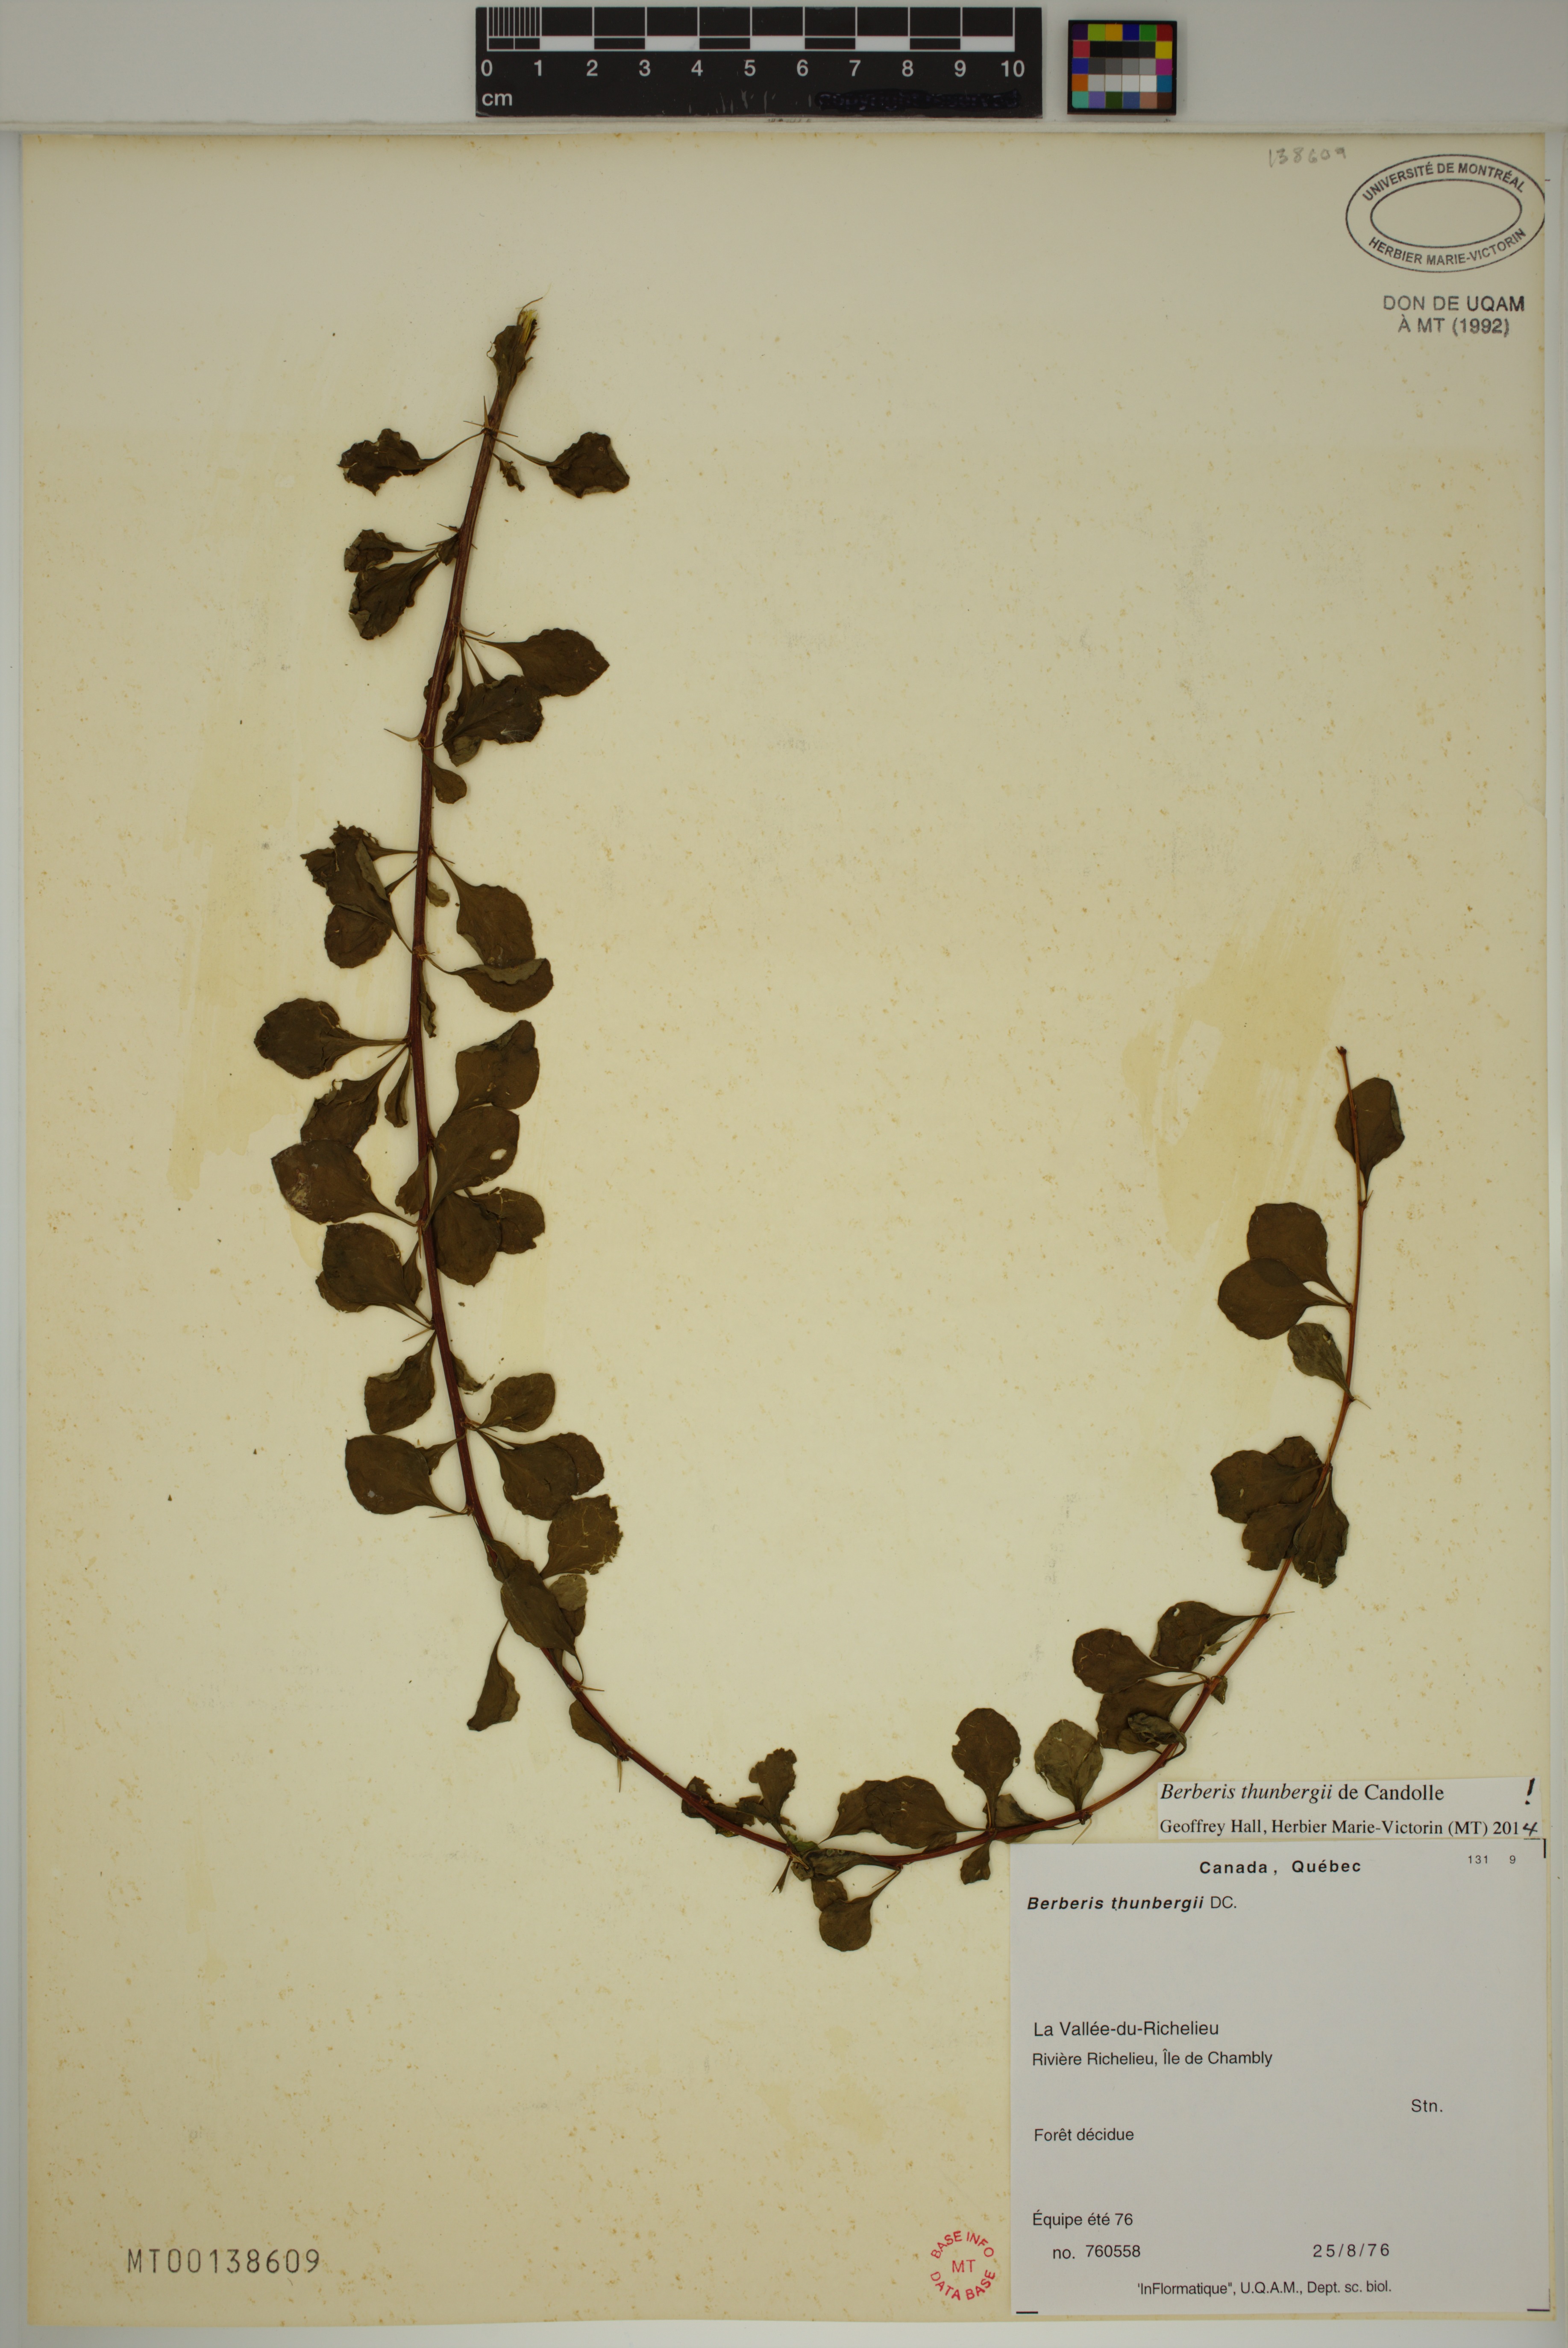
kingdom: Plantae
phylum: Tracheophyta
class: Magnoliopsida
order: Ranunculales
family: Berberidaceae
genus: Berberis
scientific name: Berberis thunbergii
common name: Japanese barberry
